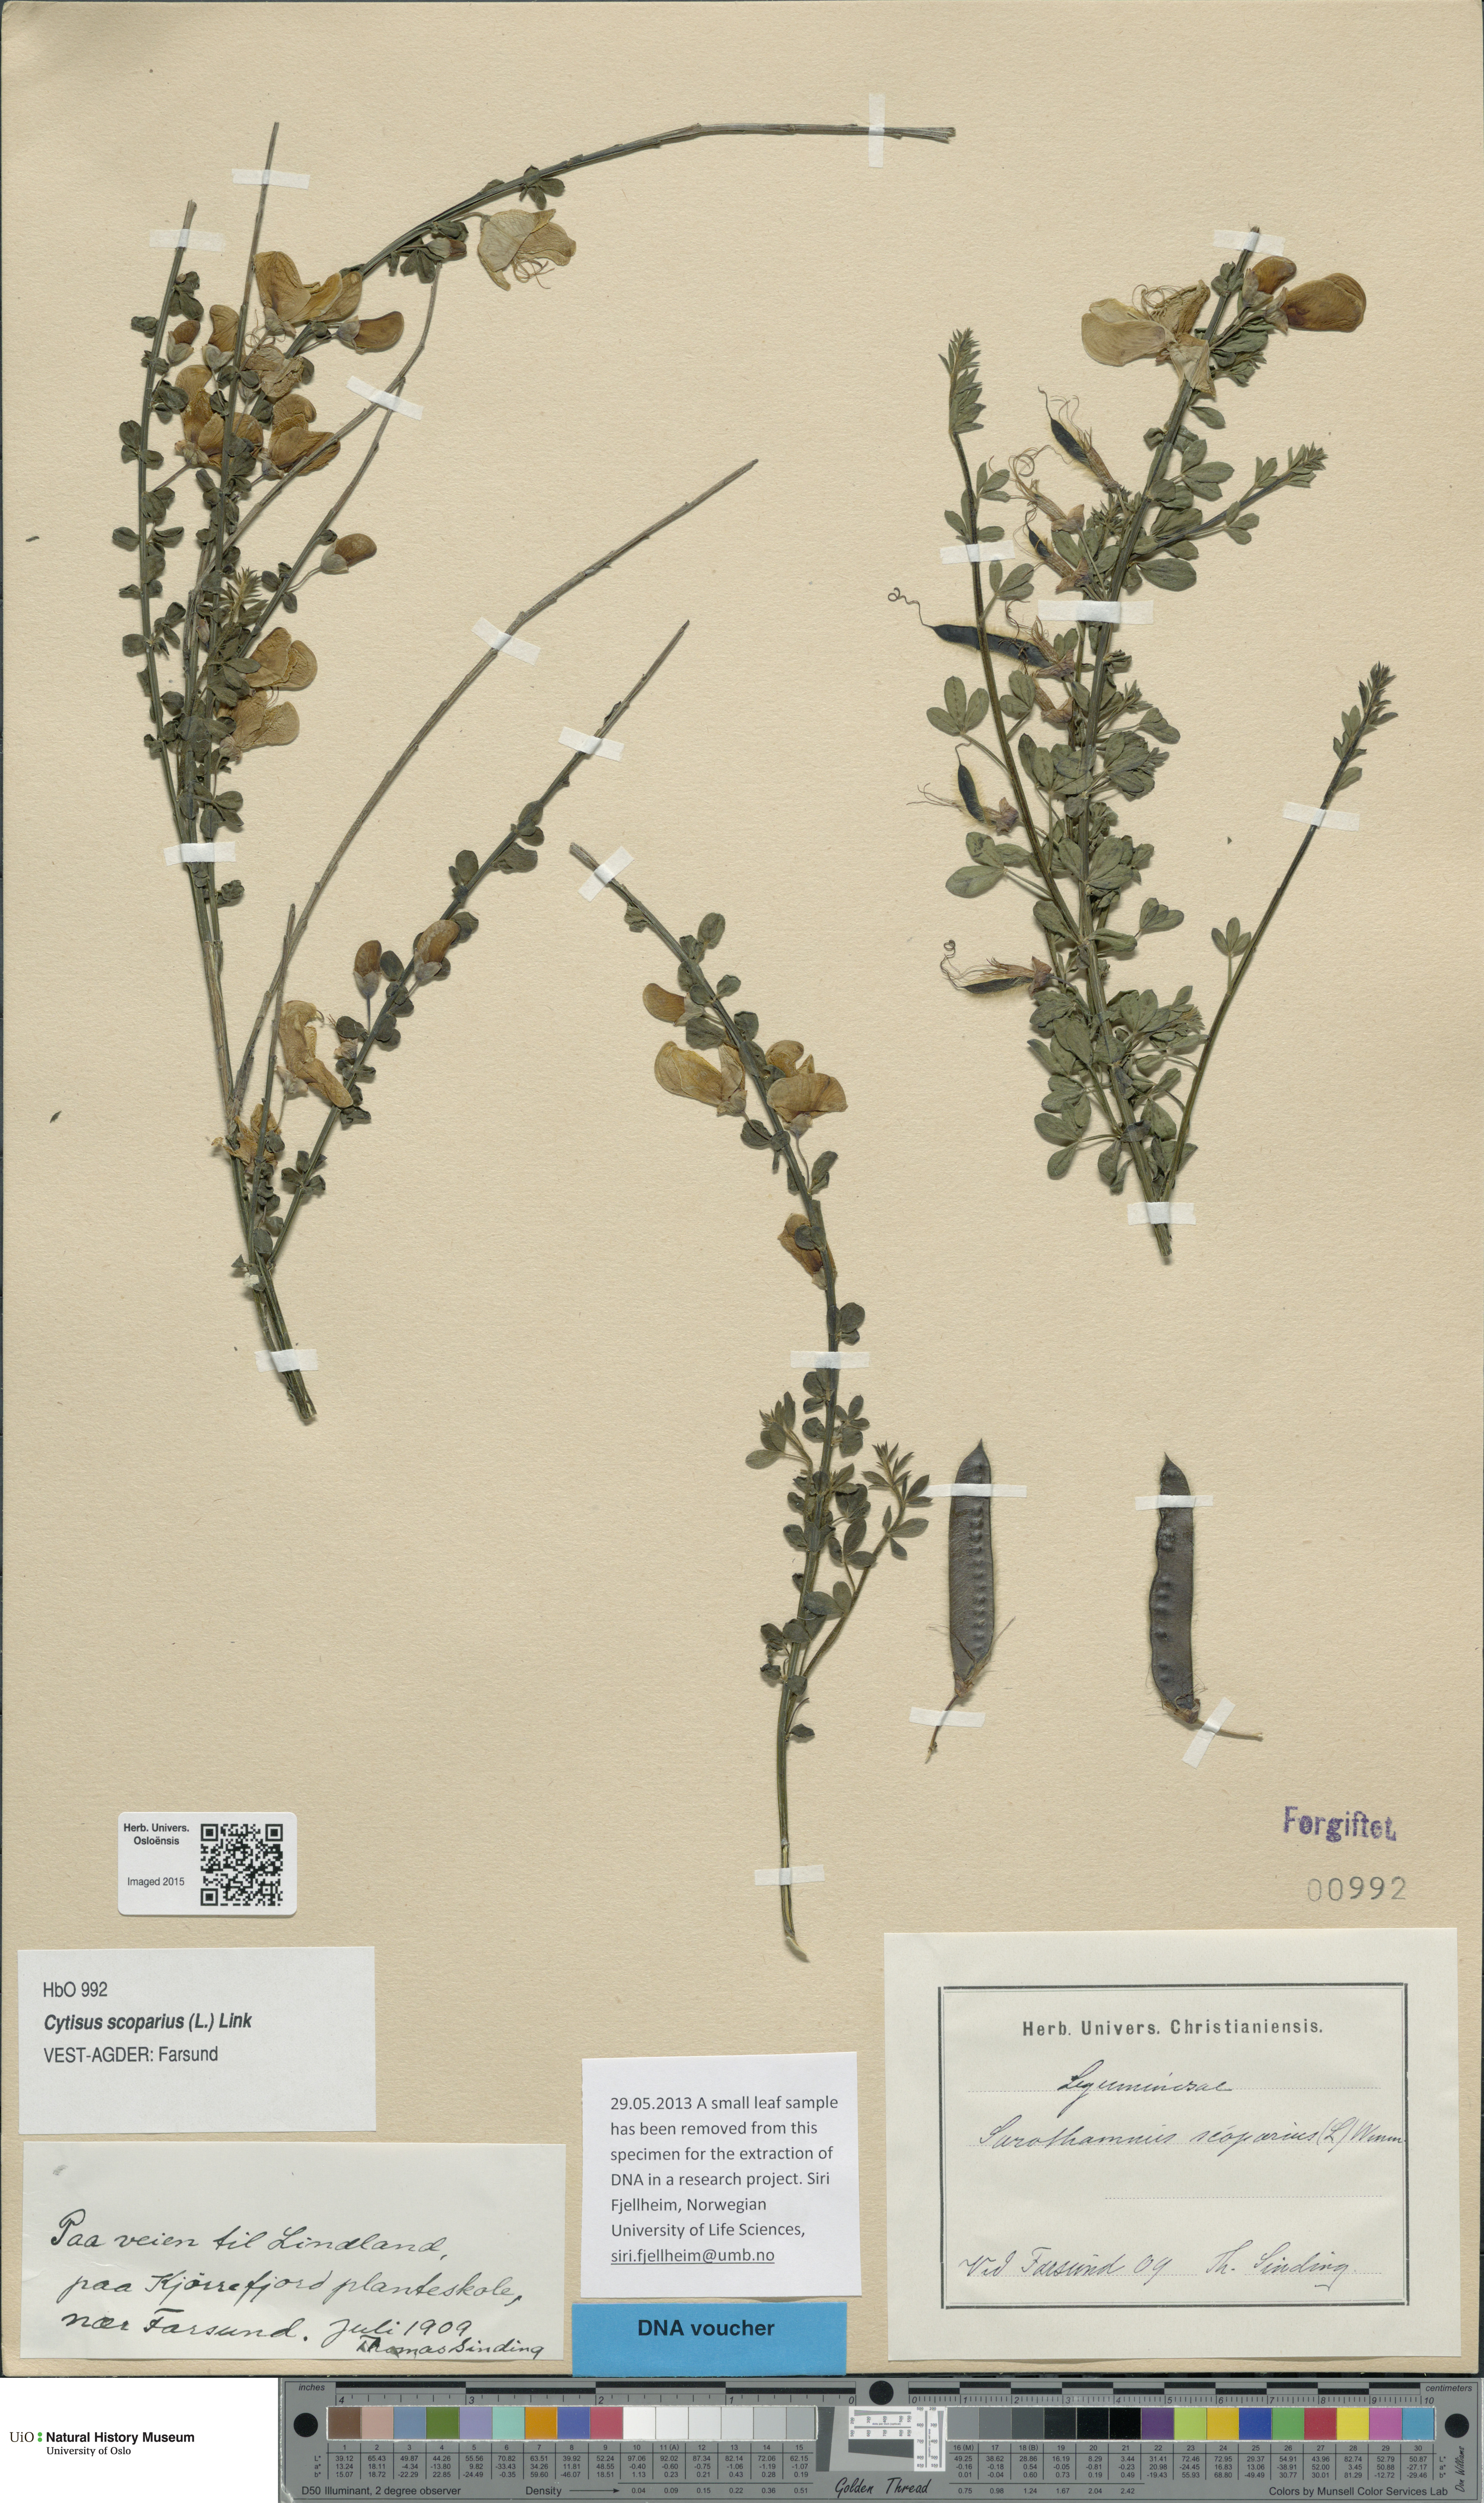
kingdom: Plantae
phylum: Tracheophyta
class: Magnoliopsida
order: Fabales
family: Fabaceae
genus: Cytisus
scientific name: Cytisus scoparius
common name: Scotch broom
